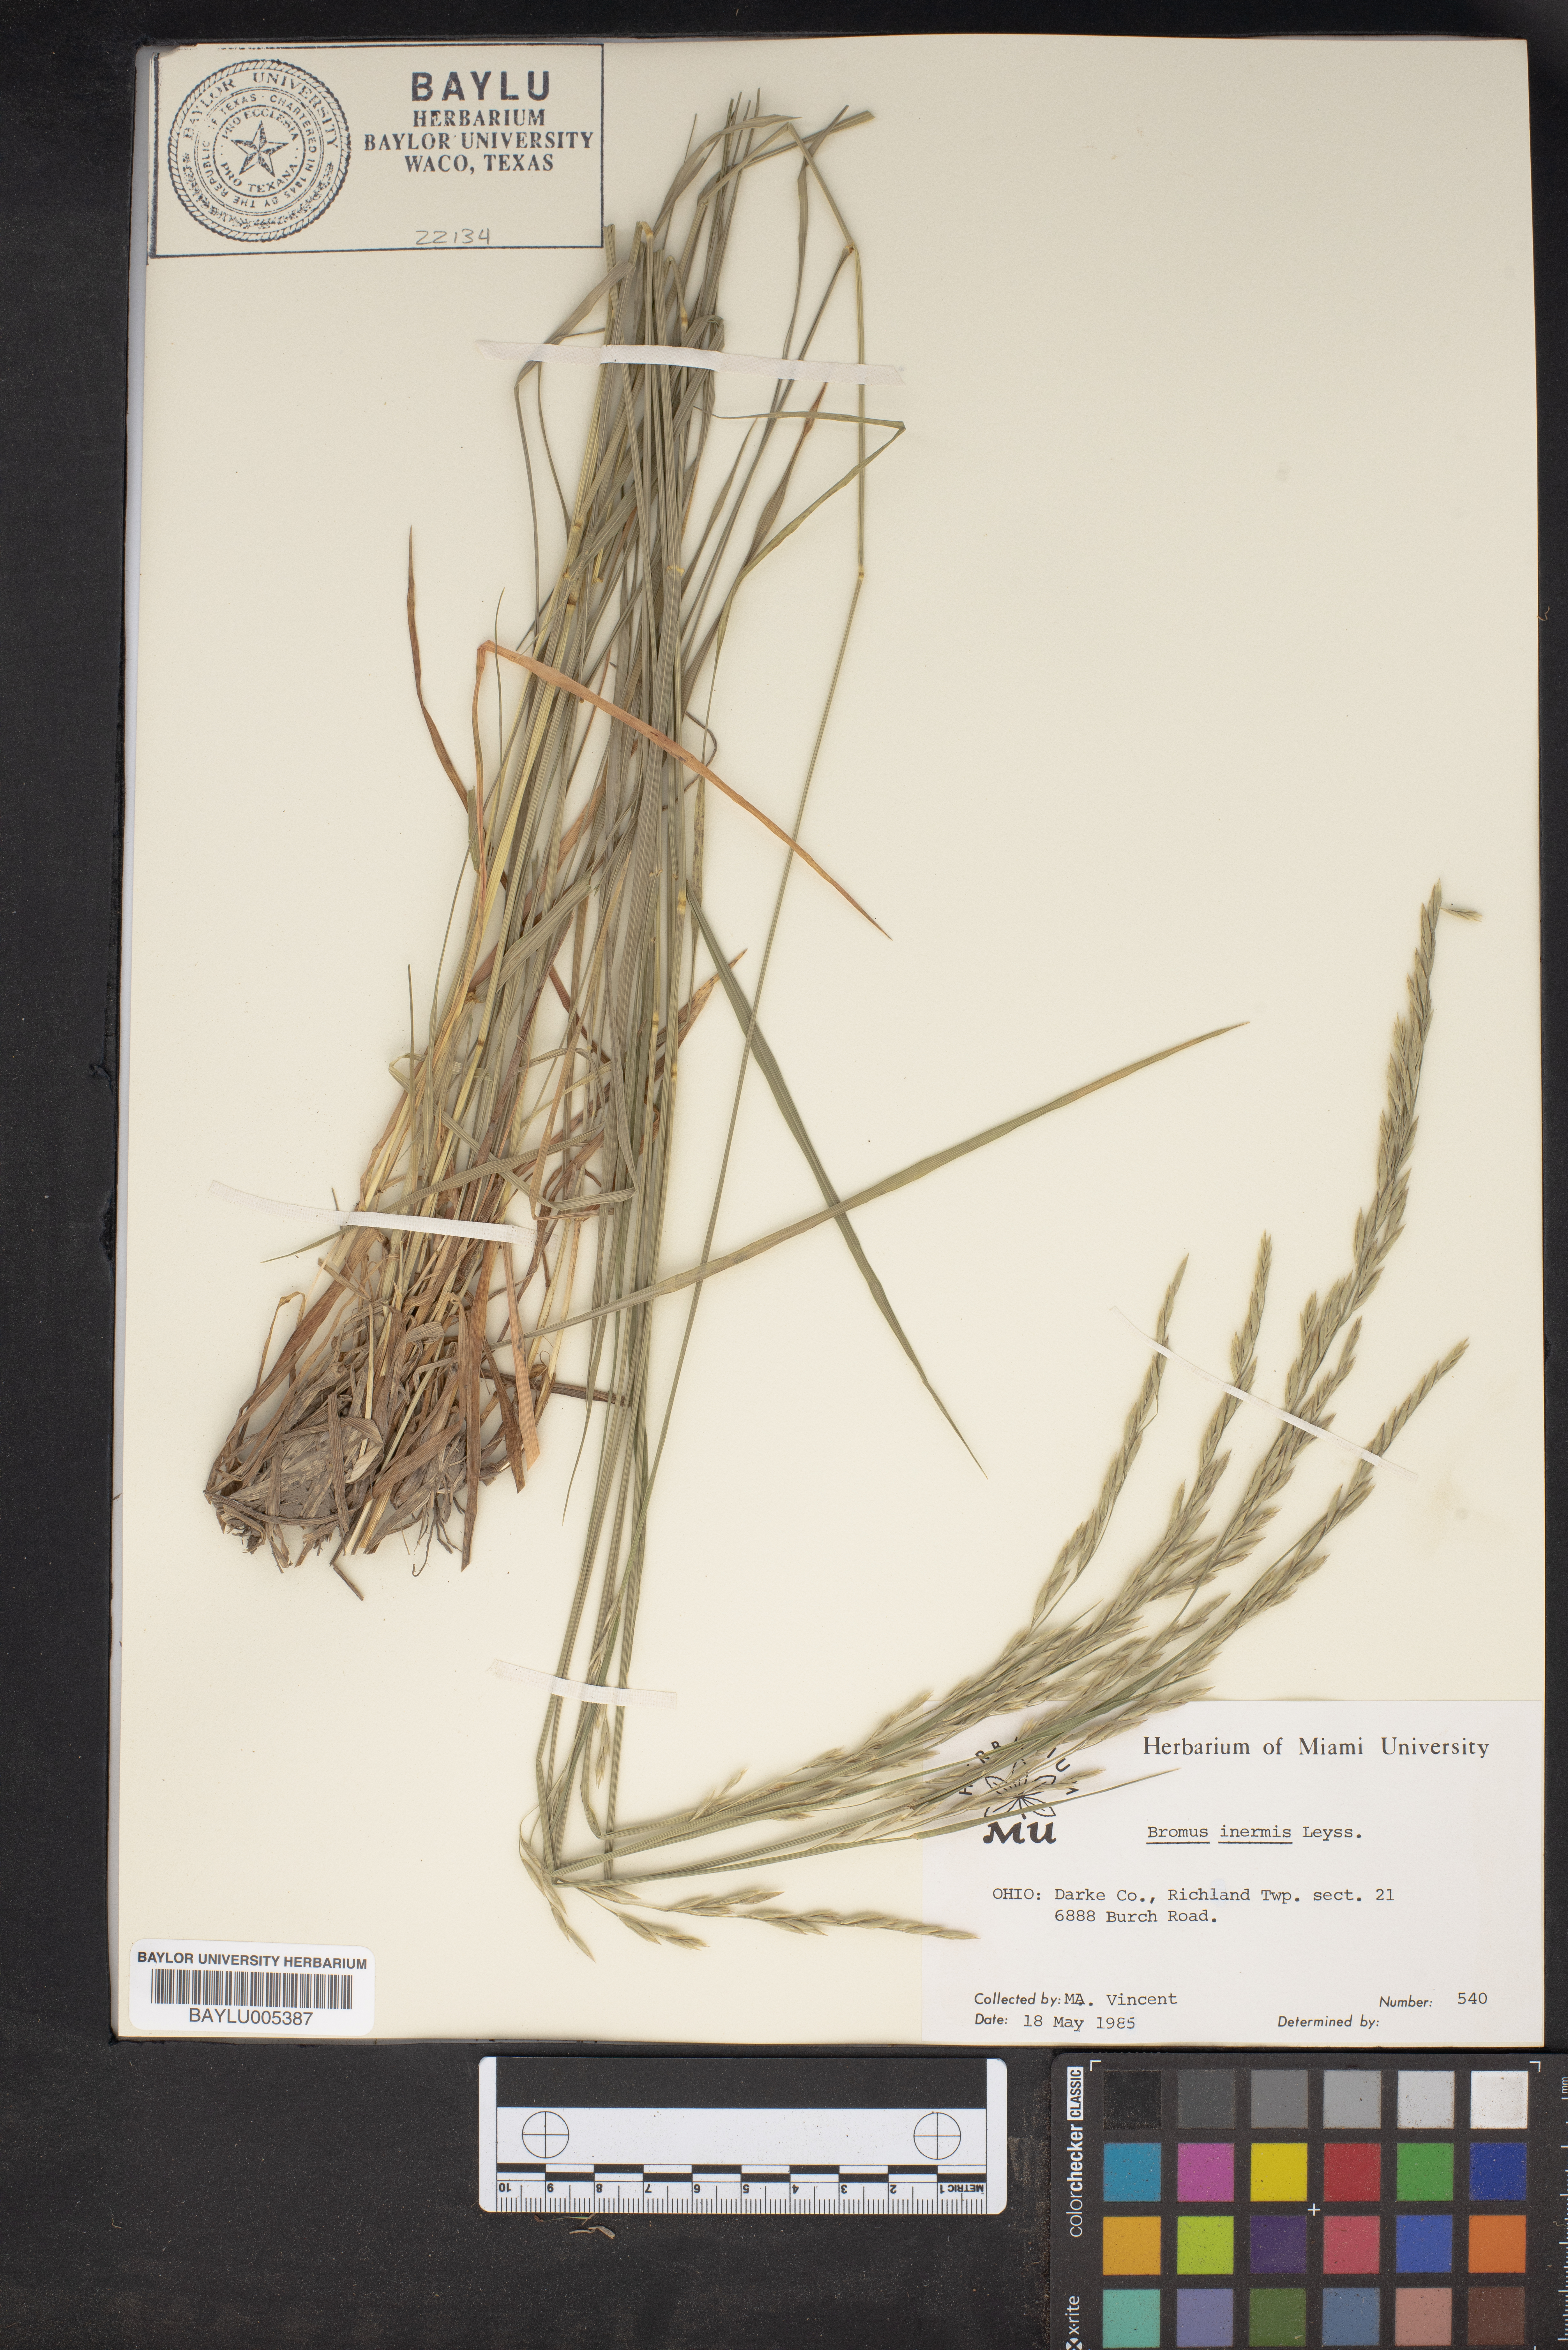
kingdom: Plantae
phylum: Tracheophyta
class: Liliopsida
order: Poales
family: Poaceae
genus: Bromus
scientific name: Bromus inermis
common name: Smooth brome
